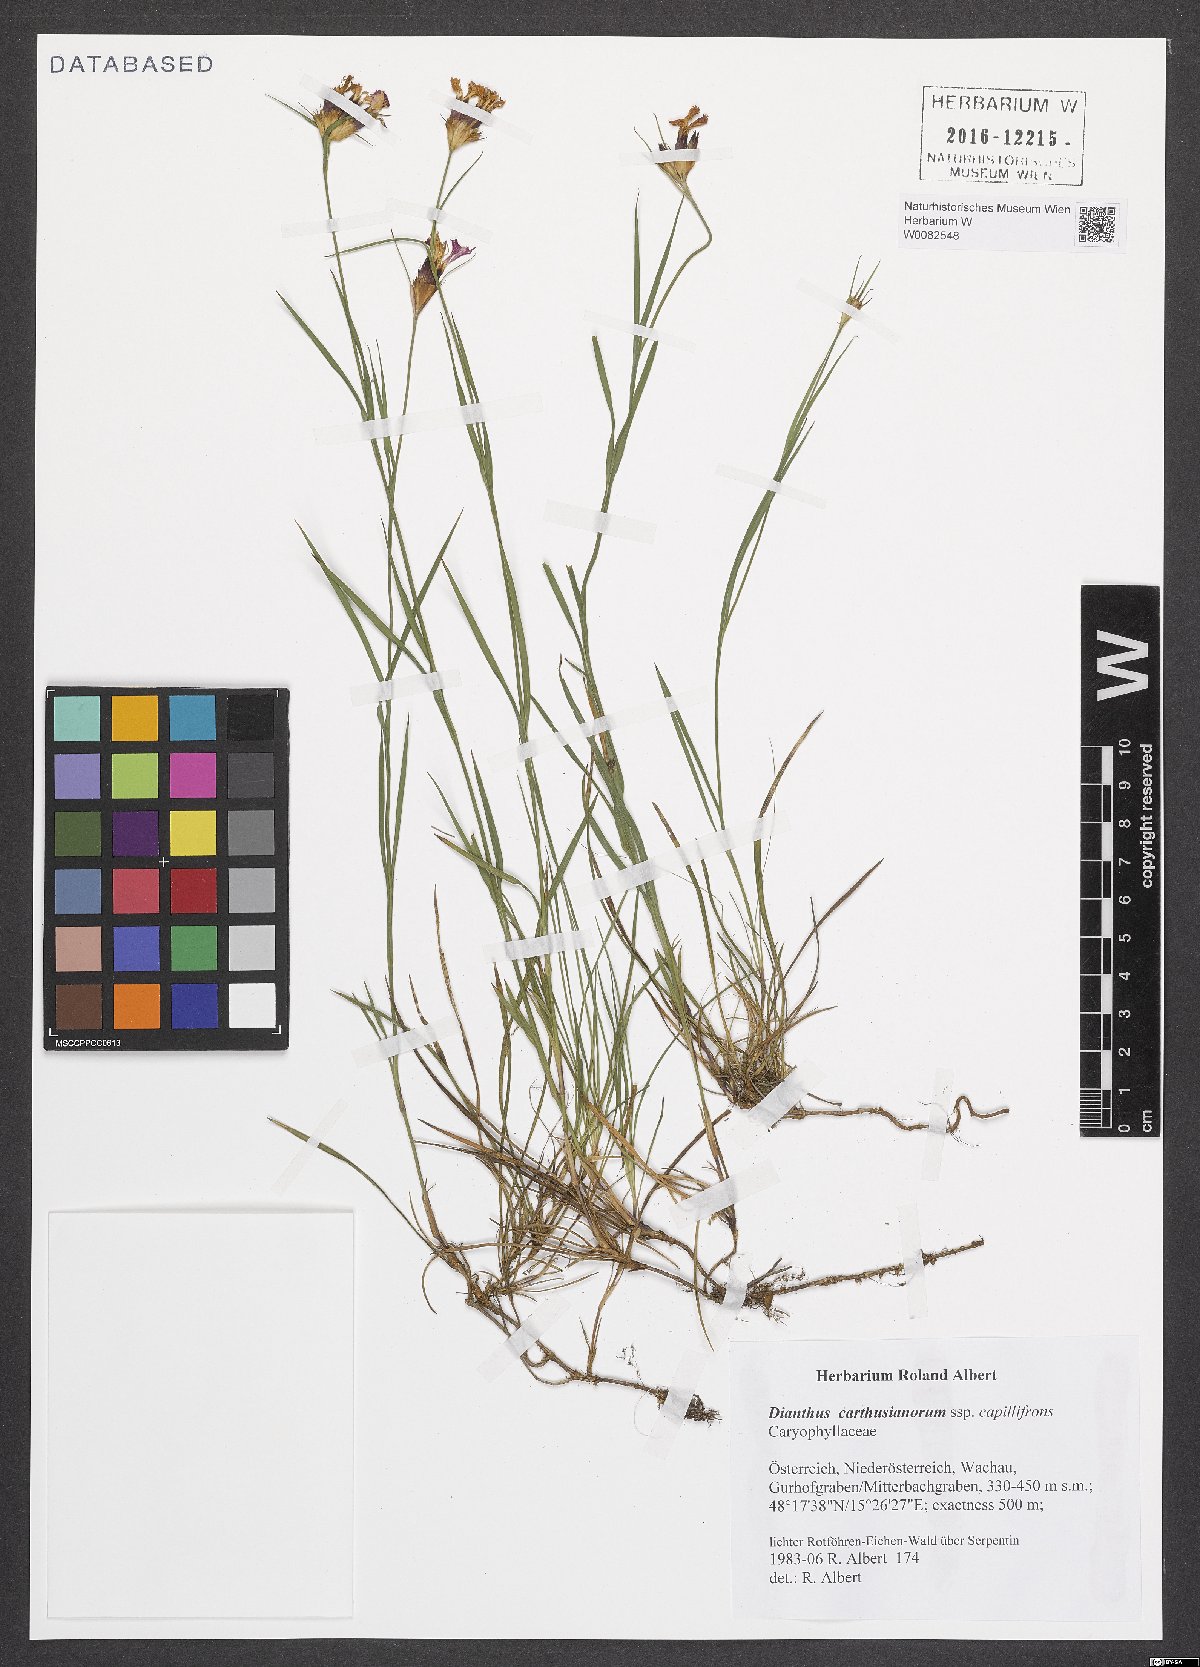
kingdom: Plantae
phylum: Tracheophyta
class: Magnoliopsida
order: Caryophyllales
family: Caryophyllaceae
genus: Dianthus
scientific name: Dianthus carthusianorum
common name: Carthusian pink
